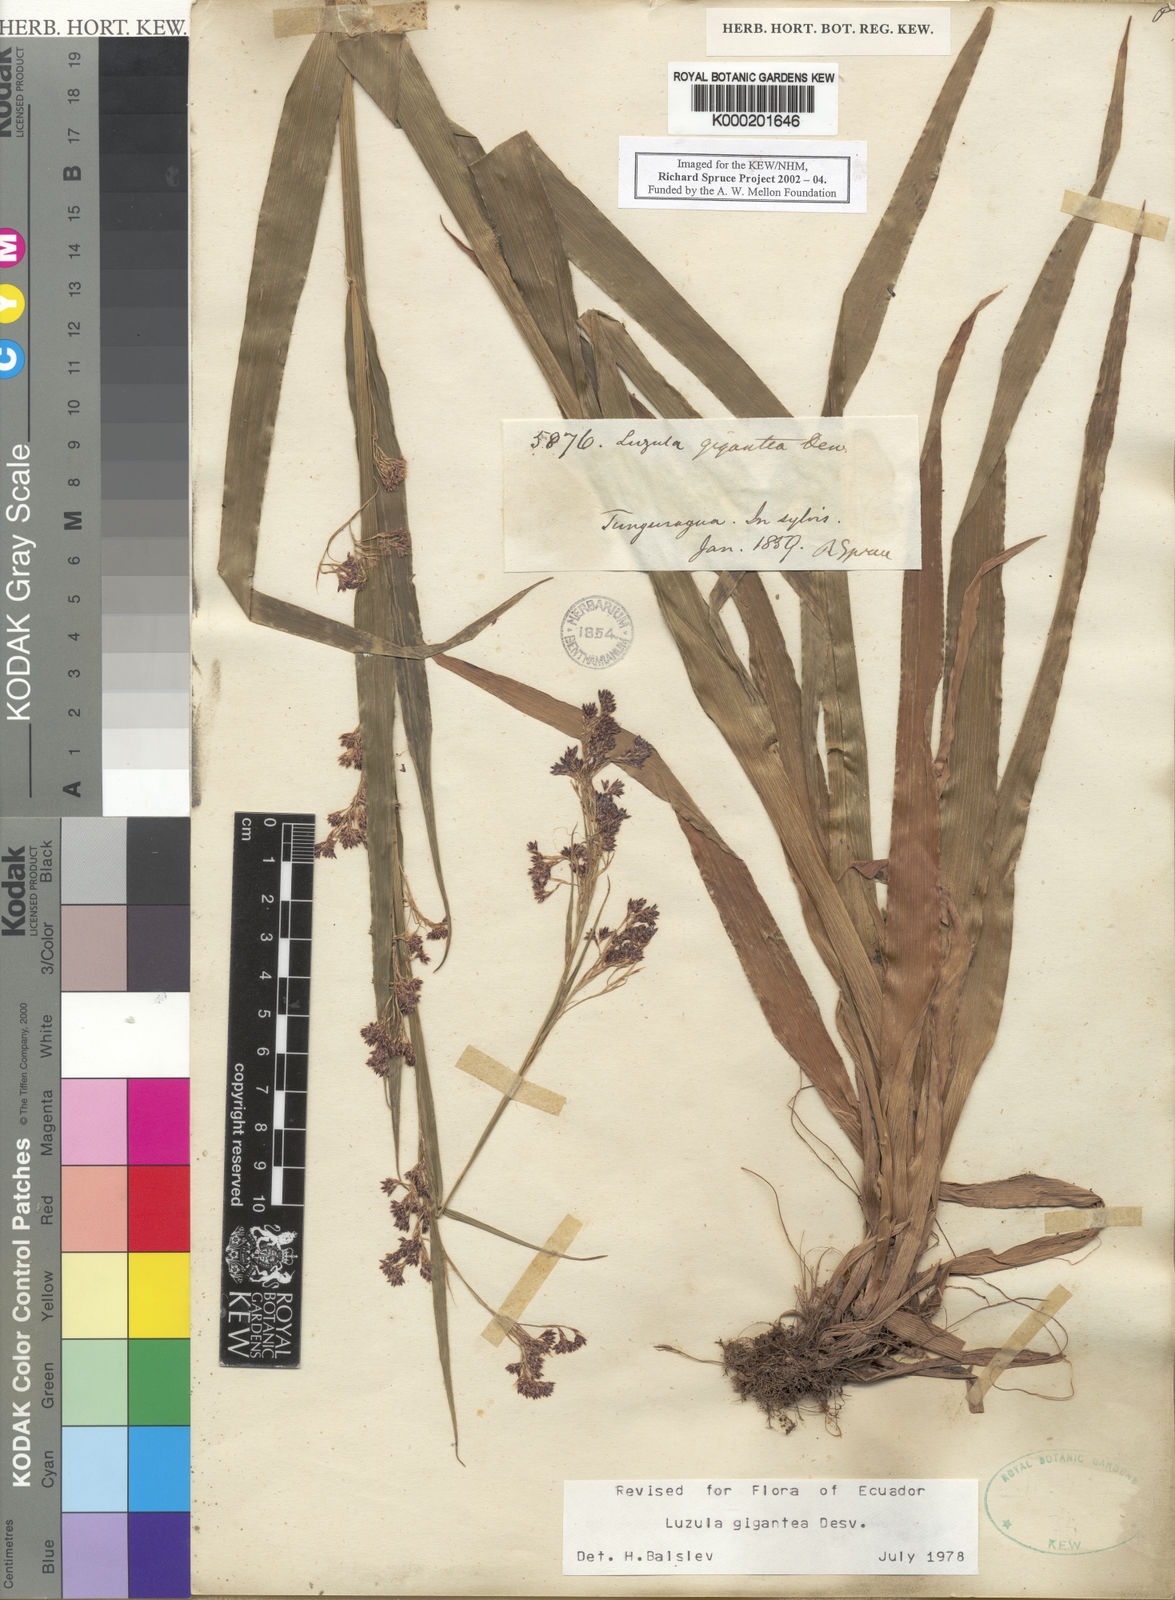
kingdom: Plantae
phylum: Tracheophyta
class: Liliopsida
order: Poales
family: Juncaceae
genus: Luzula
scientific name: Luzula gigantea
